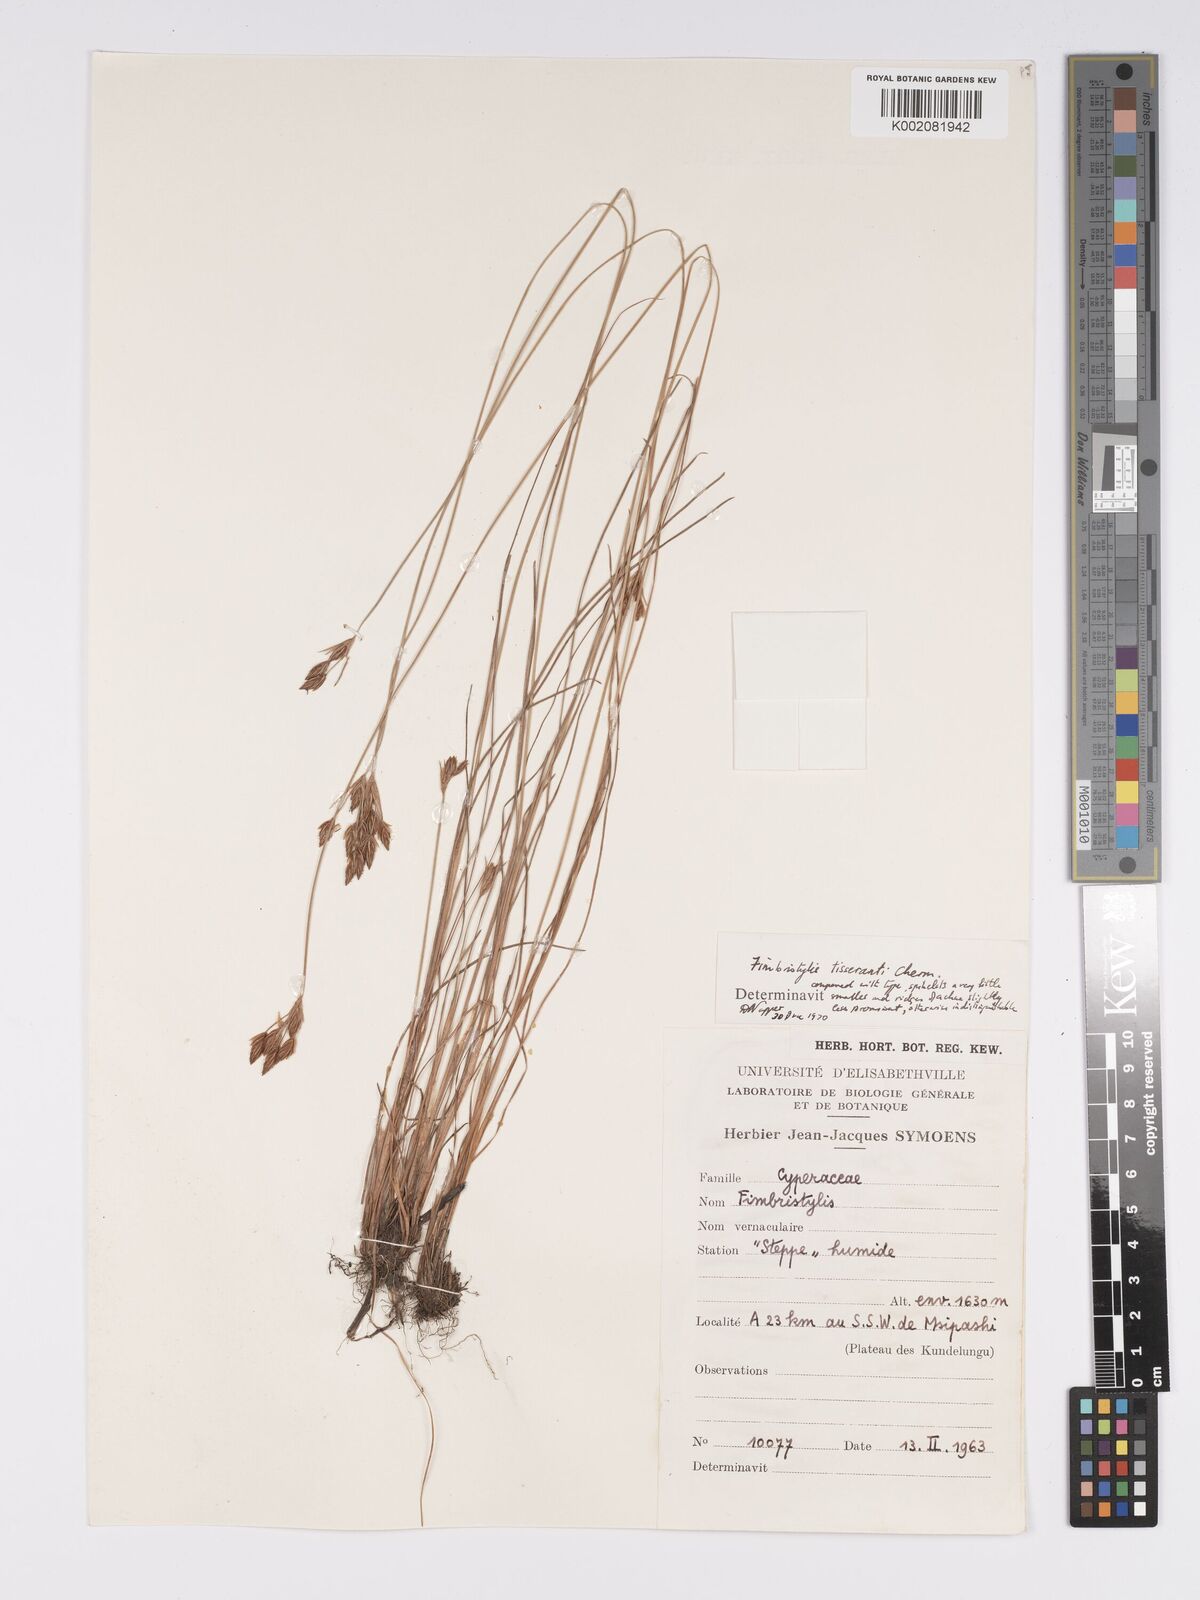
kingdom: Plantae
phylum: Tracheophyta
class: Liliopsida
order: Poales
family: Cyperaceae
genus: Bulbostylis
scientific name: Bulbostylis viridecarinata
